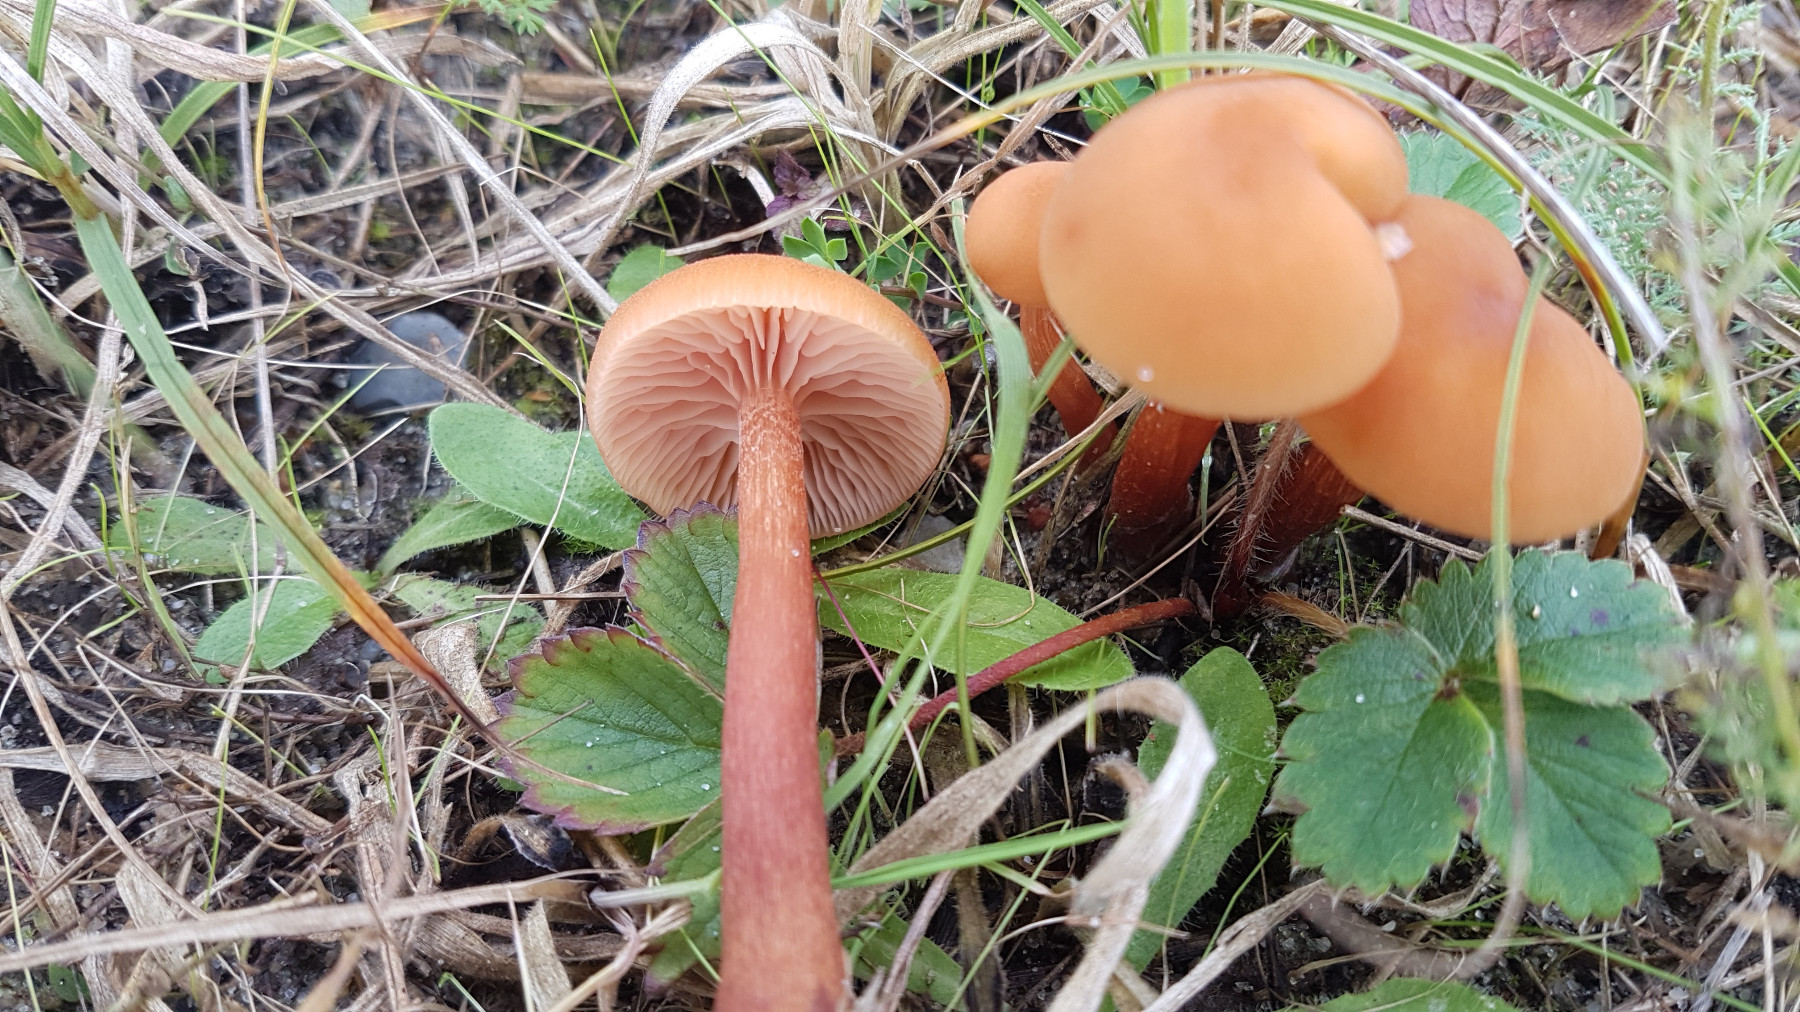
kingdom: Fungi
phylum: Basidiomycota
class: Agaricomycetes
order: Agaricales
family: Hydnangiaceae
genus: Laccaria
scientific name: Laccaria
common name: ametysthat
